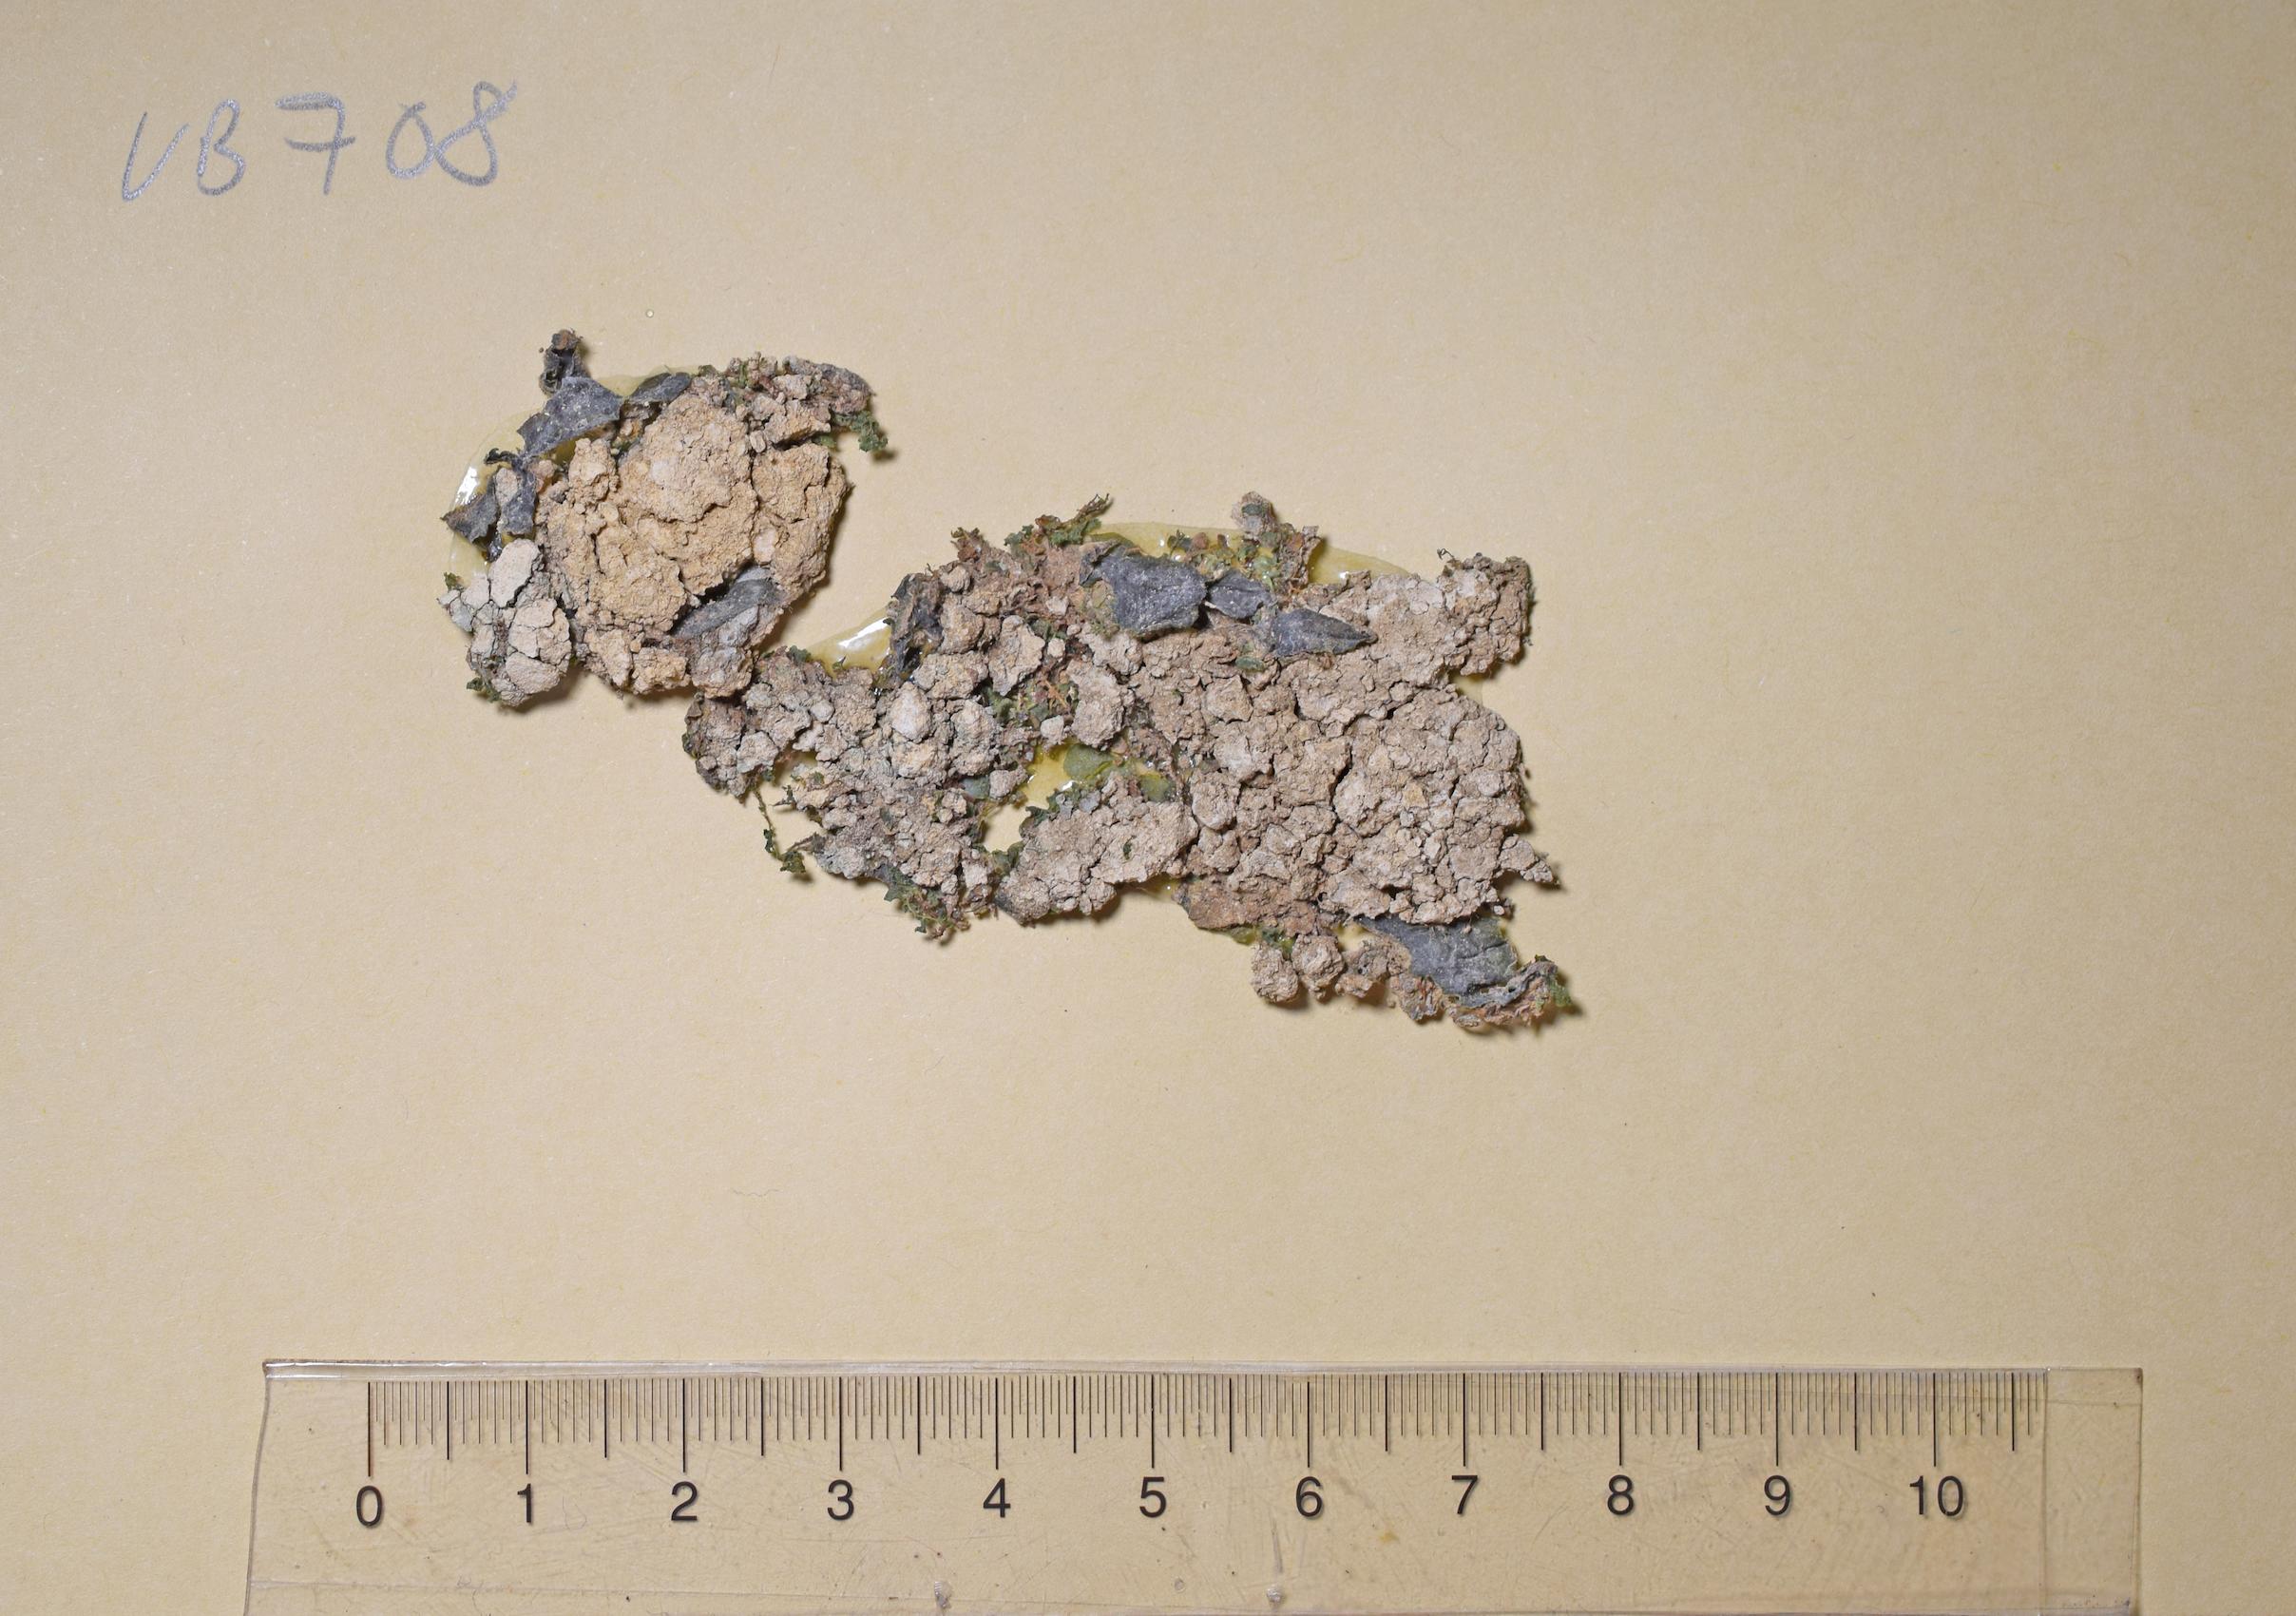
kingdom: Fungi
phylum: Ascomycota
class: Lecanoromycetes
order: Pertusariales
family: Pertusariaceae
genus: Pertusaria
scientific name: Pertusaria
